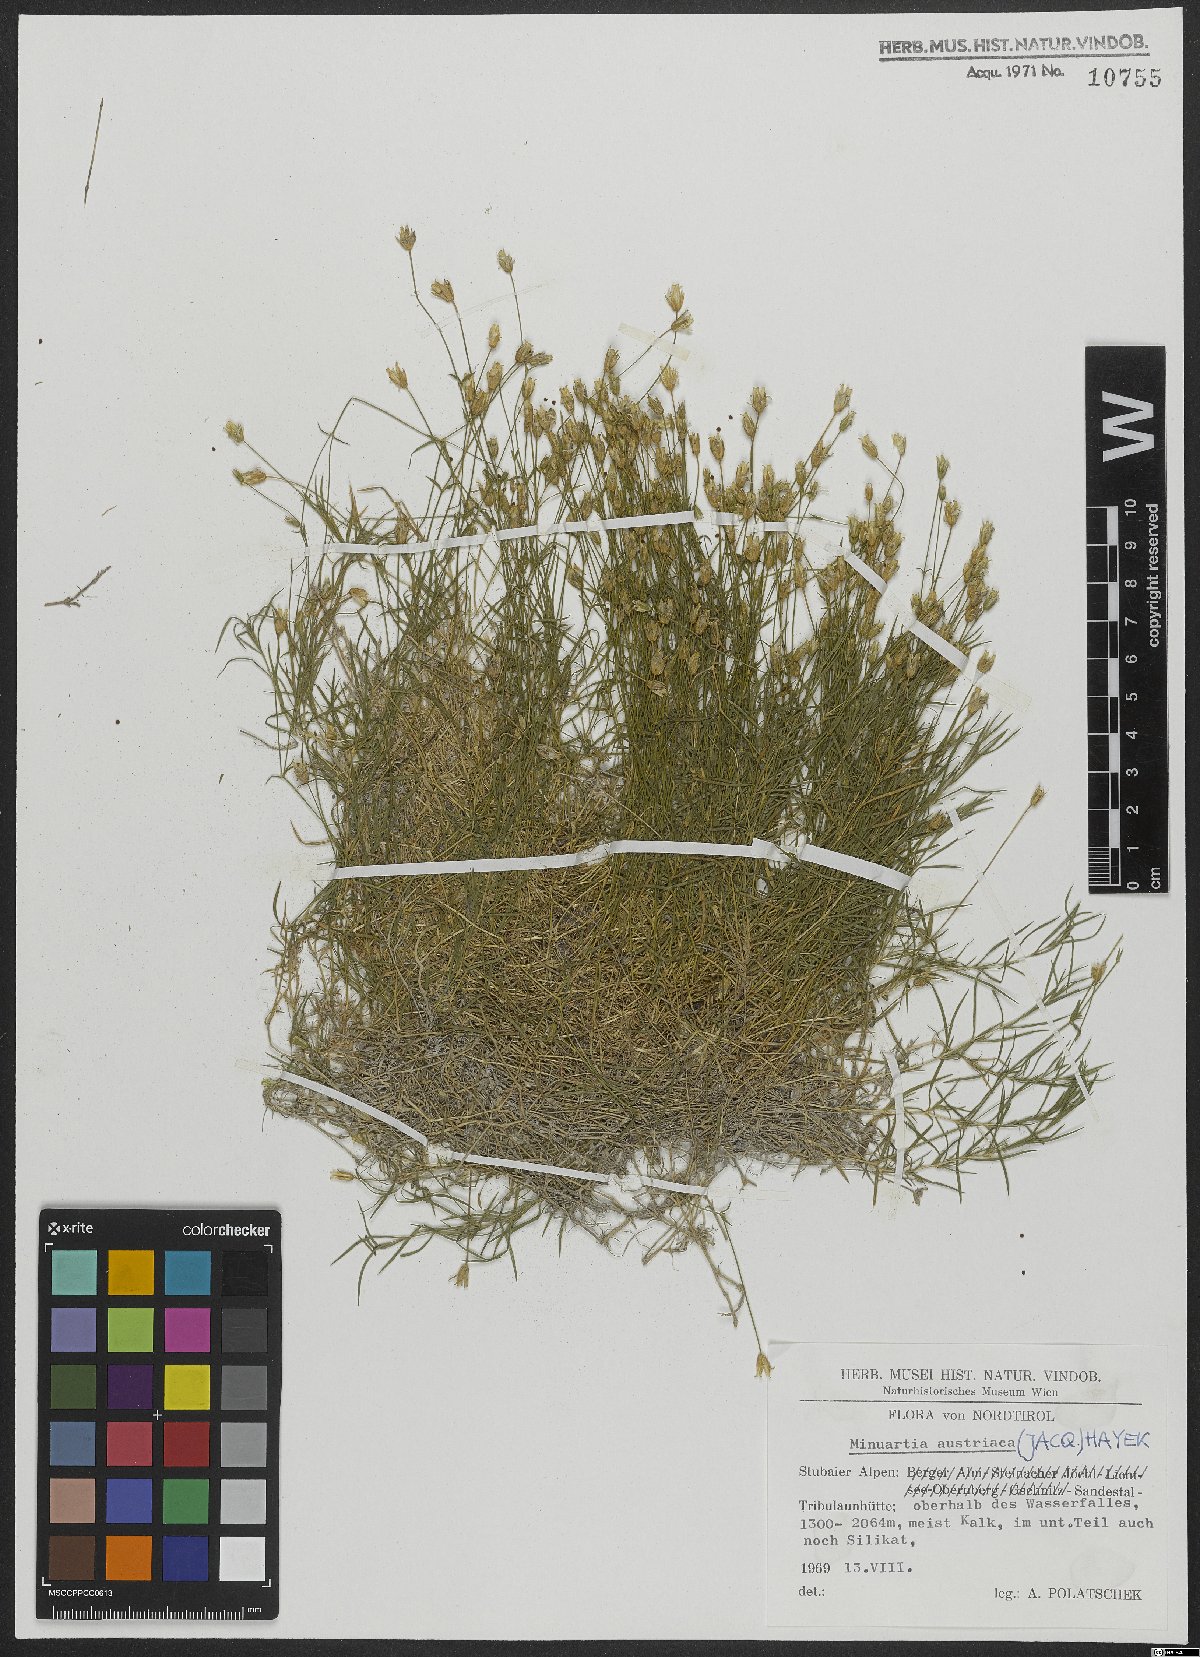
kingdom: Plantae
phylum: Tracheophyta
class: Magnoliopsida
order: Caryophyllales
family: Caryophyllaceae
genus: Sabulina
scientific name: Sabulina austriaca
